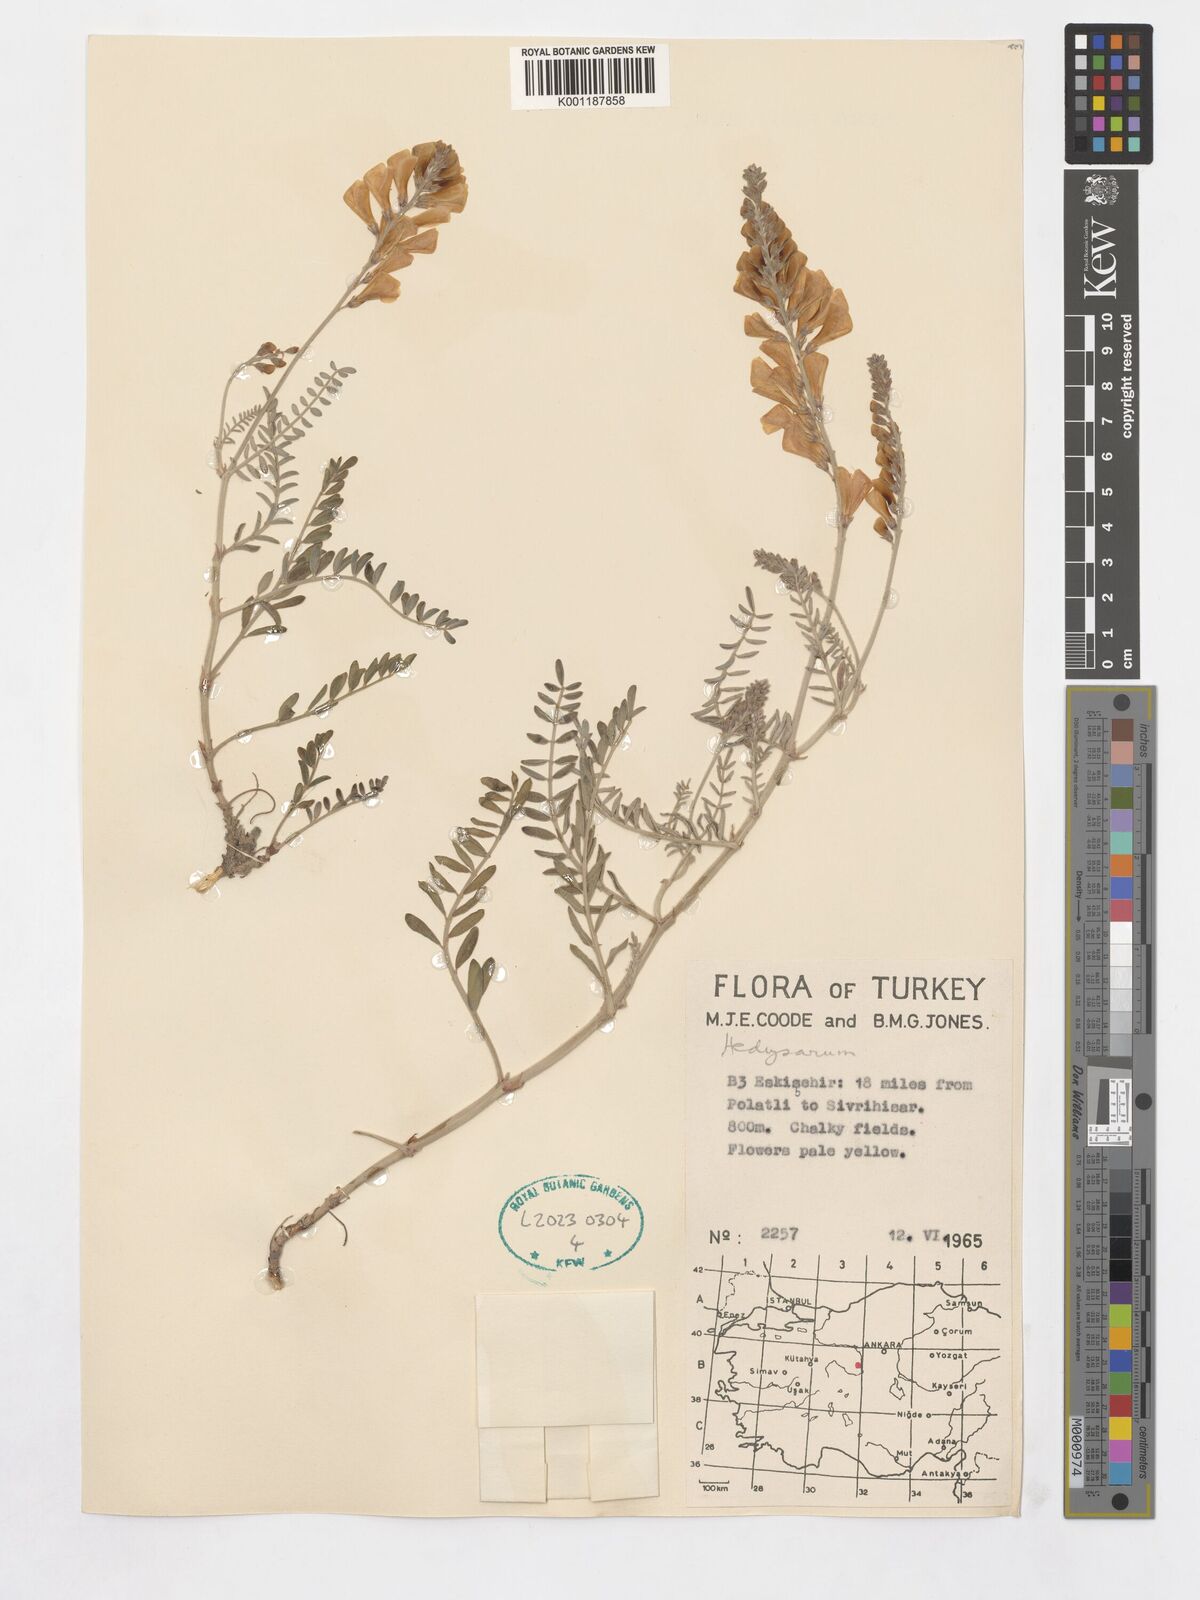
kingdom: Plantae
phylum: Tracheophyta
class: Magnoliopsida
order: Fabales
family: Fabaceae
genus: Hedysarum
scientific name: Hedysarum
